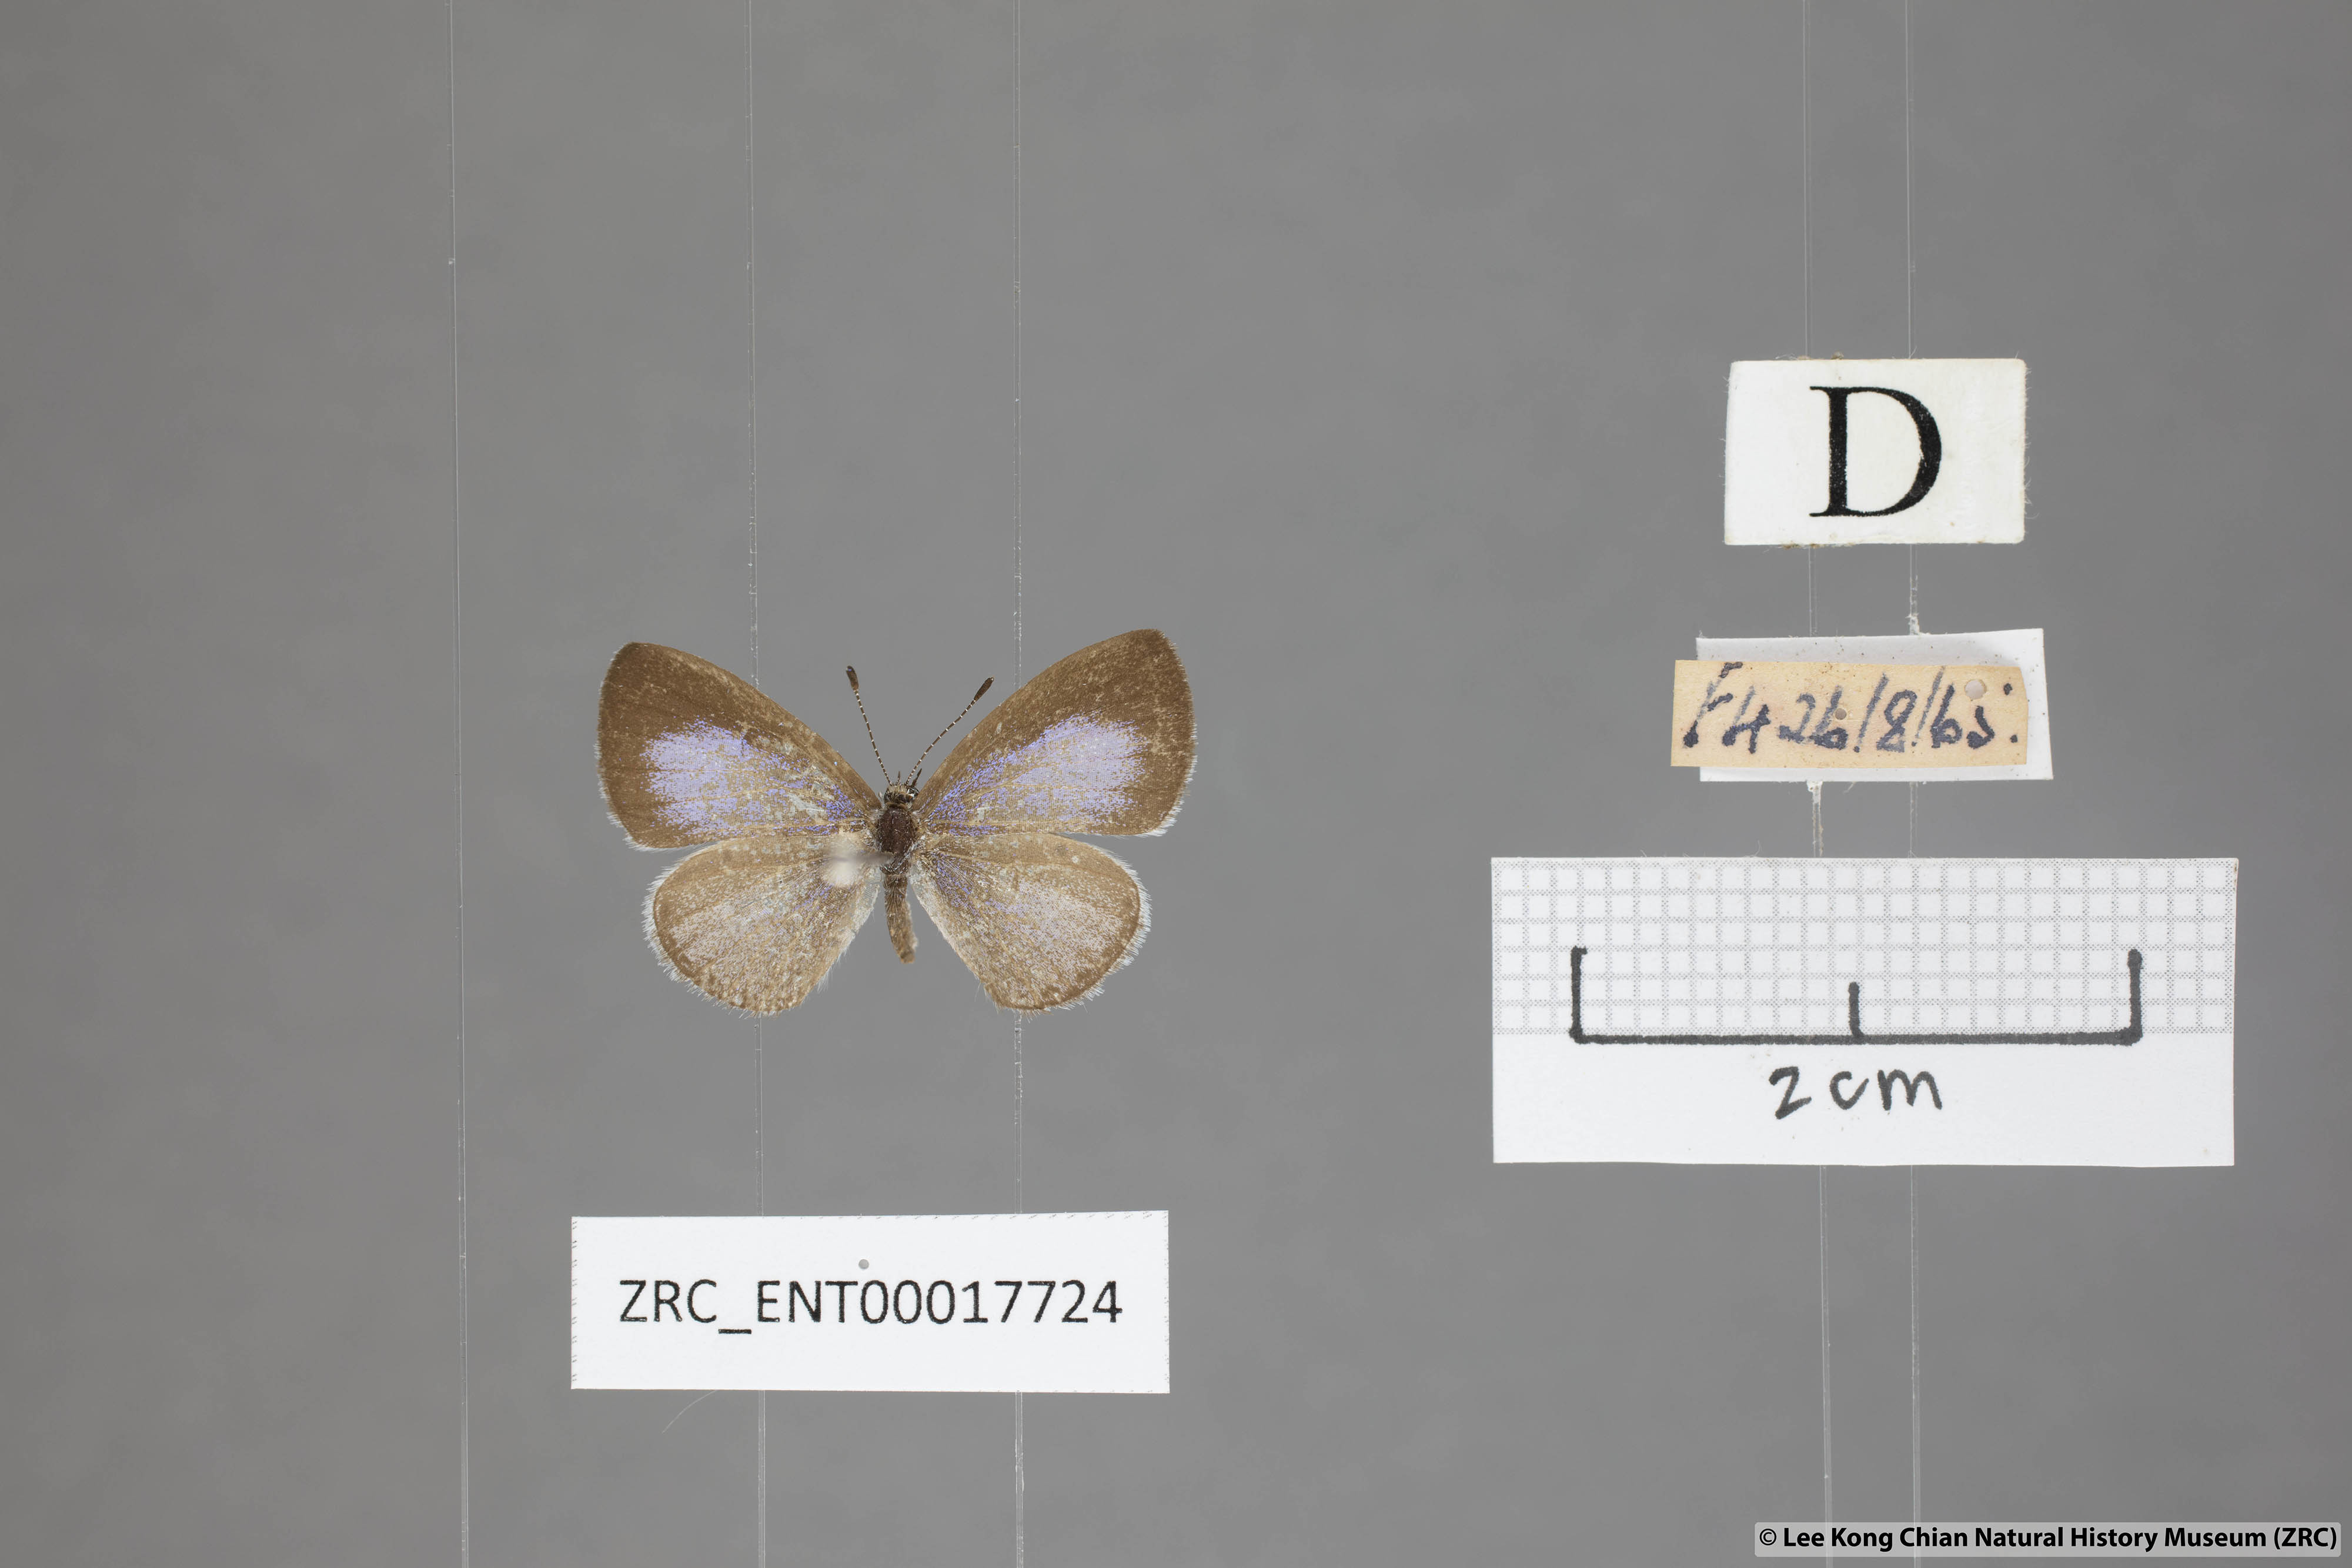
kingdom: Animalia
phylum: Arthropoda
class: Insecta
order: Lepidoptera
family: Lycaenidae
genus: Udara
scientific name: Udara
